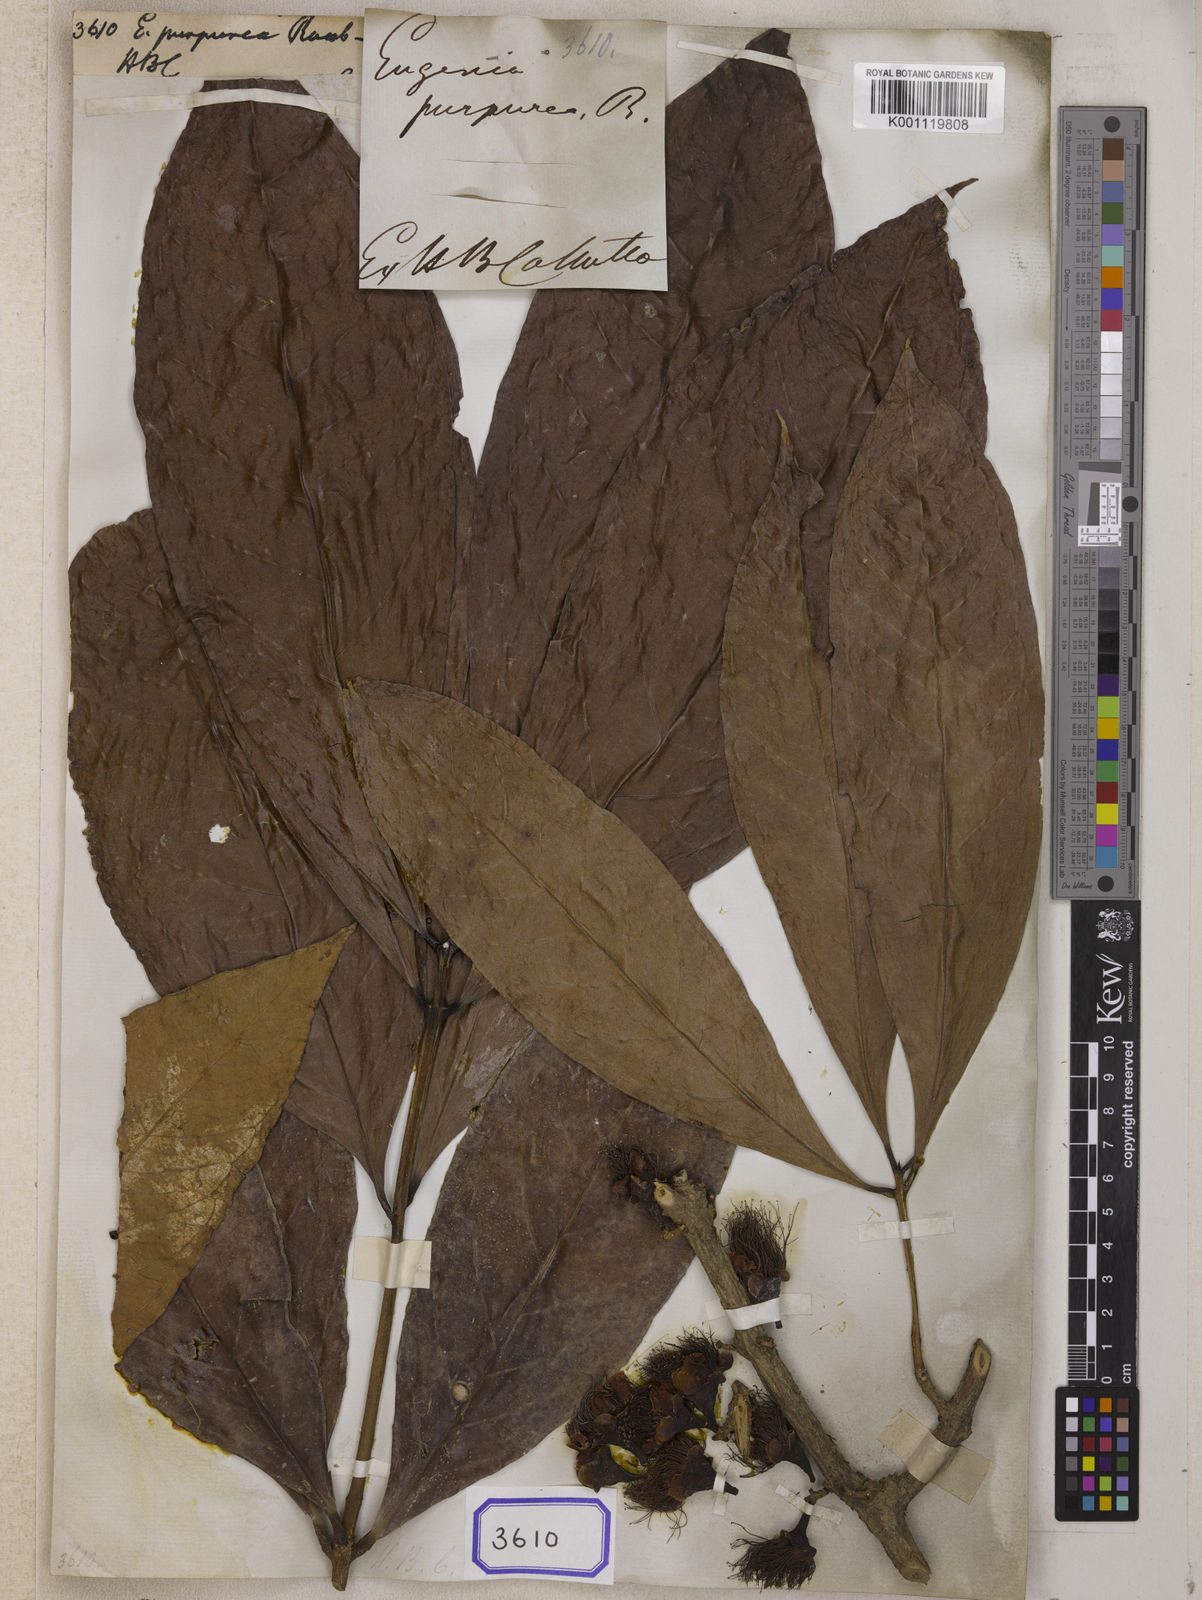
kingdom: Plantae
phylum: Tracheophyta
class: Magnoliopsida
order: Myrtales
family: Myrtaceae
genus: Syzygium
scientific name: Syzygium malaccense
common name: Malaysian apple
